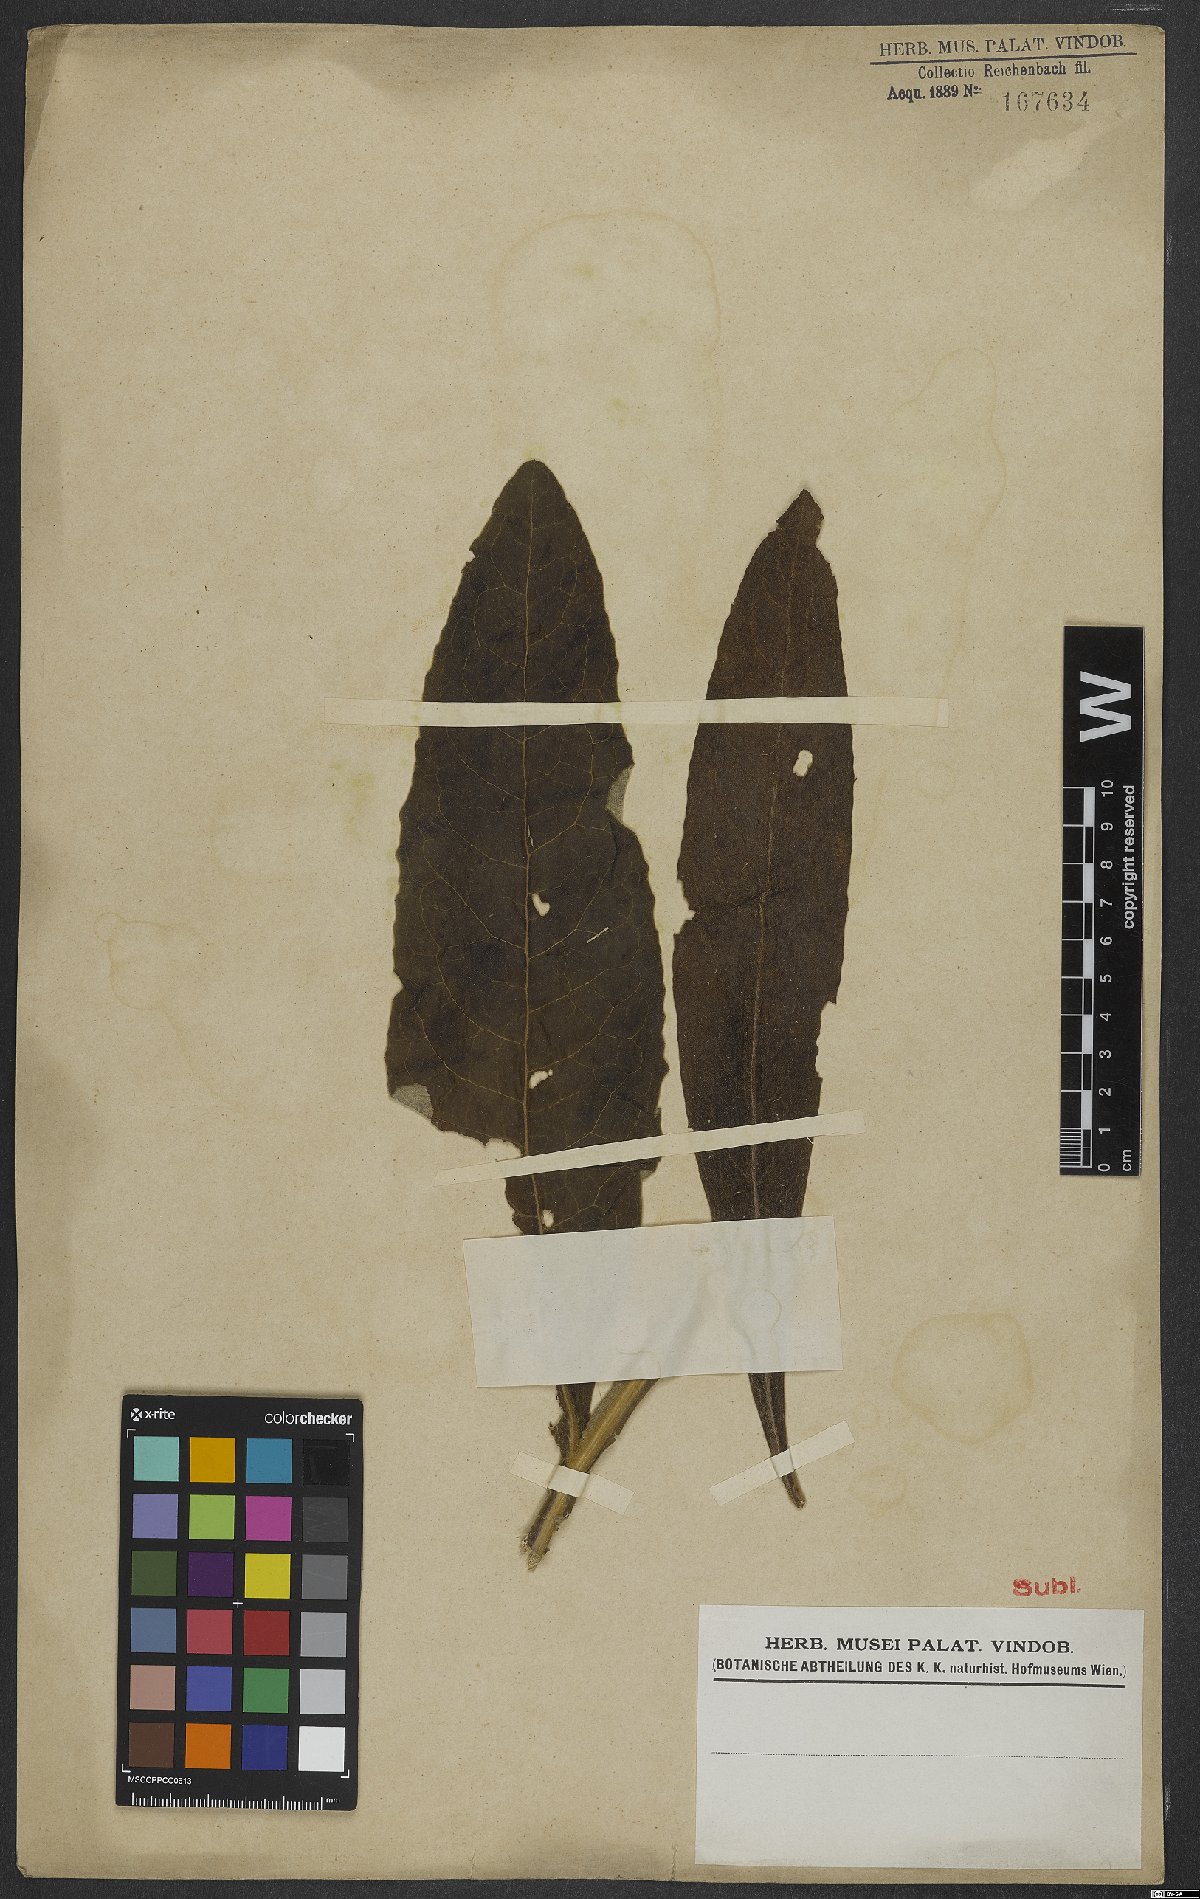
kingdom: Plantae
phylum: Tracheophyta
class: Magnoliopsida
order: Asterales
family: Asteraceae
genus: Trixis
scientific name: Trixis
